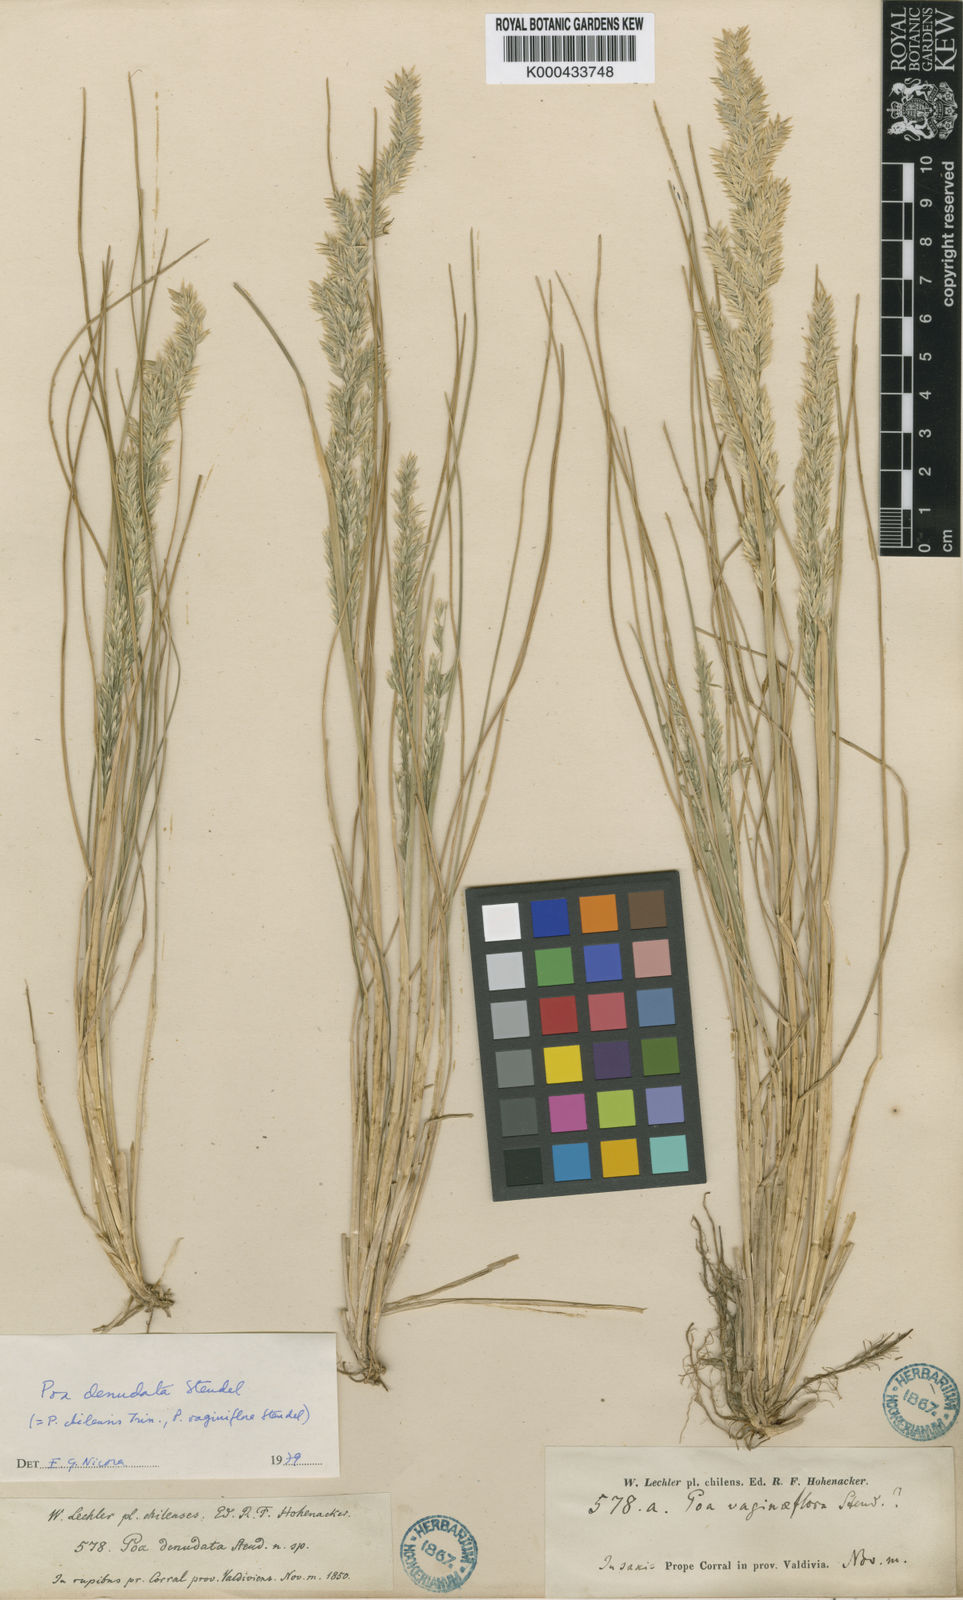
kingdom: Plantae
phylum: Tracheophyta
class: Liliopsida
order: Poales
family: Poaceae
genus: Poa
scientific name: Poa denudata
